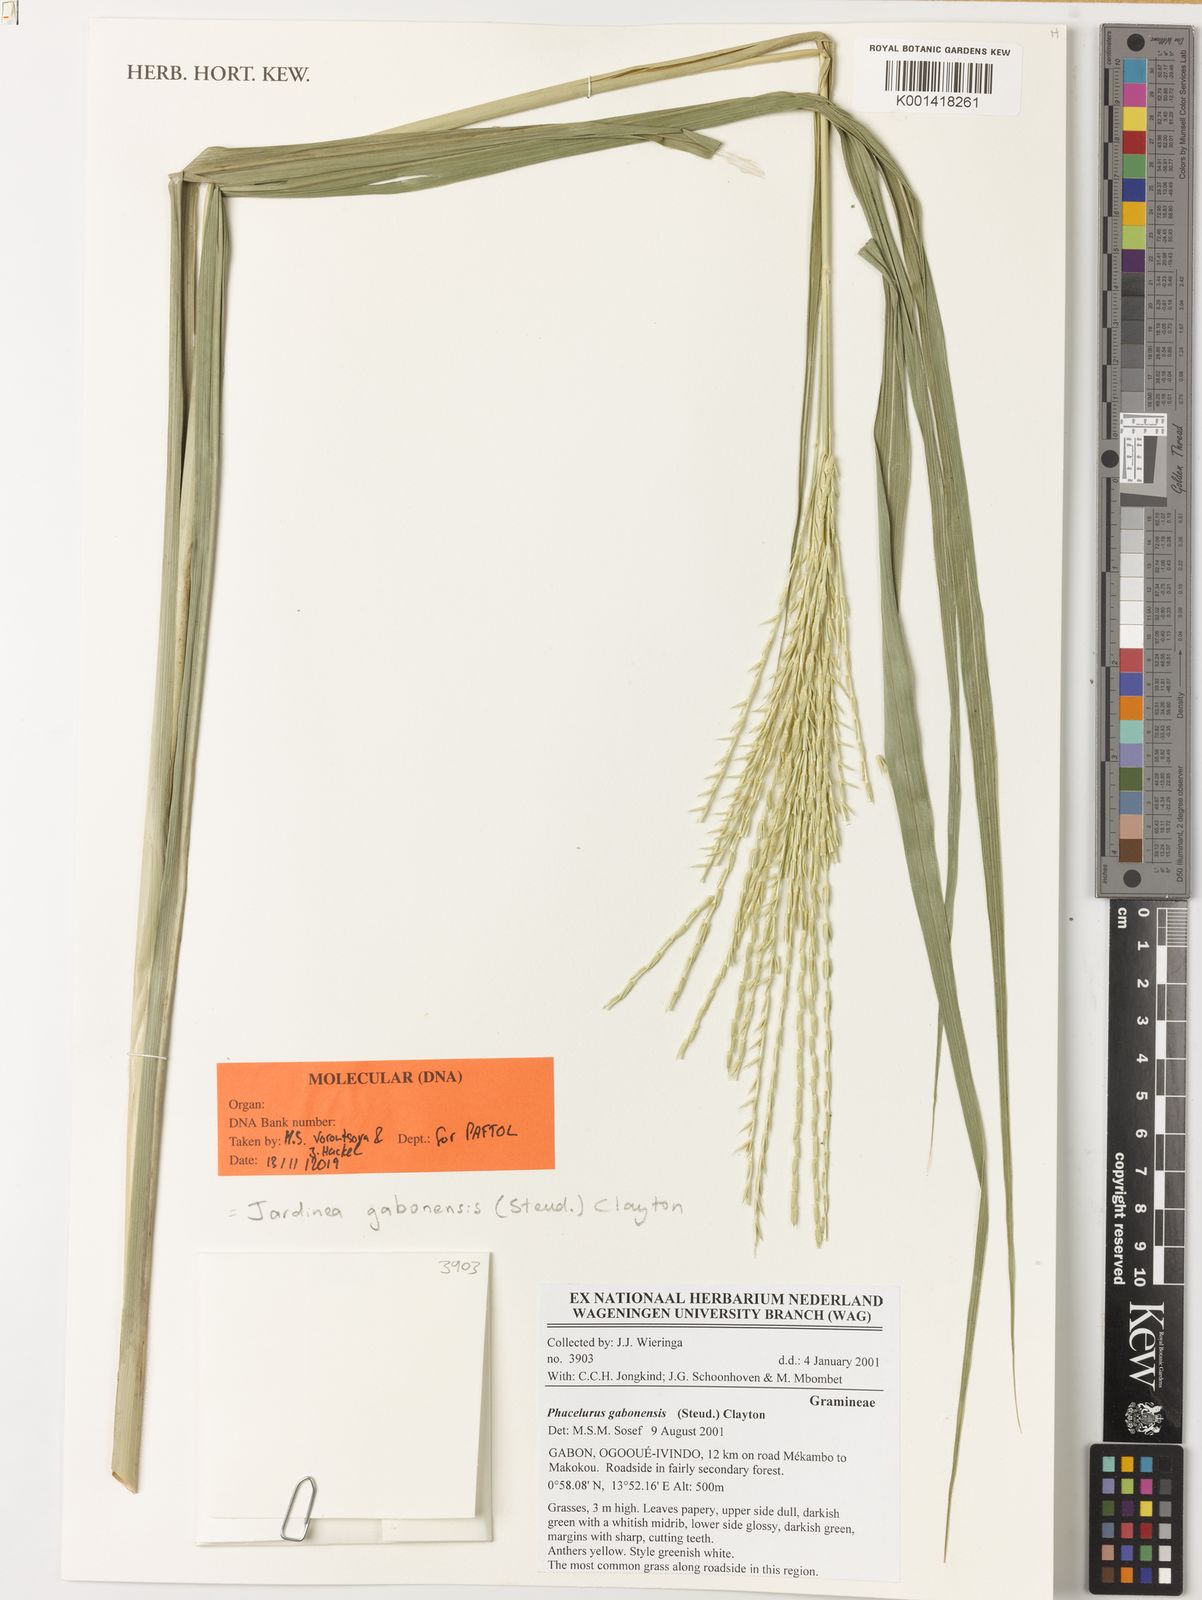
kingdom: Plantae
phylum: Tracheophyta
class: Liliopsida
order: Poales
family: Poaceae
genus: Phacelurus
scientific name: Phacelurus gabonensis
